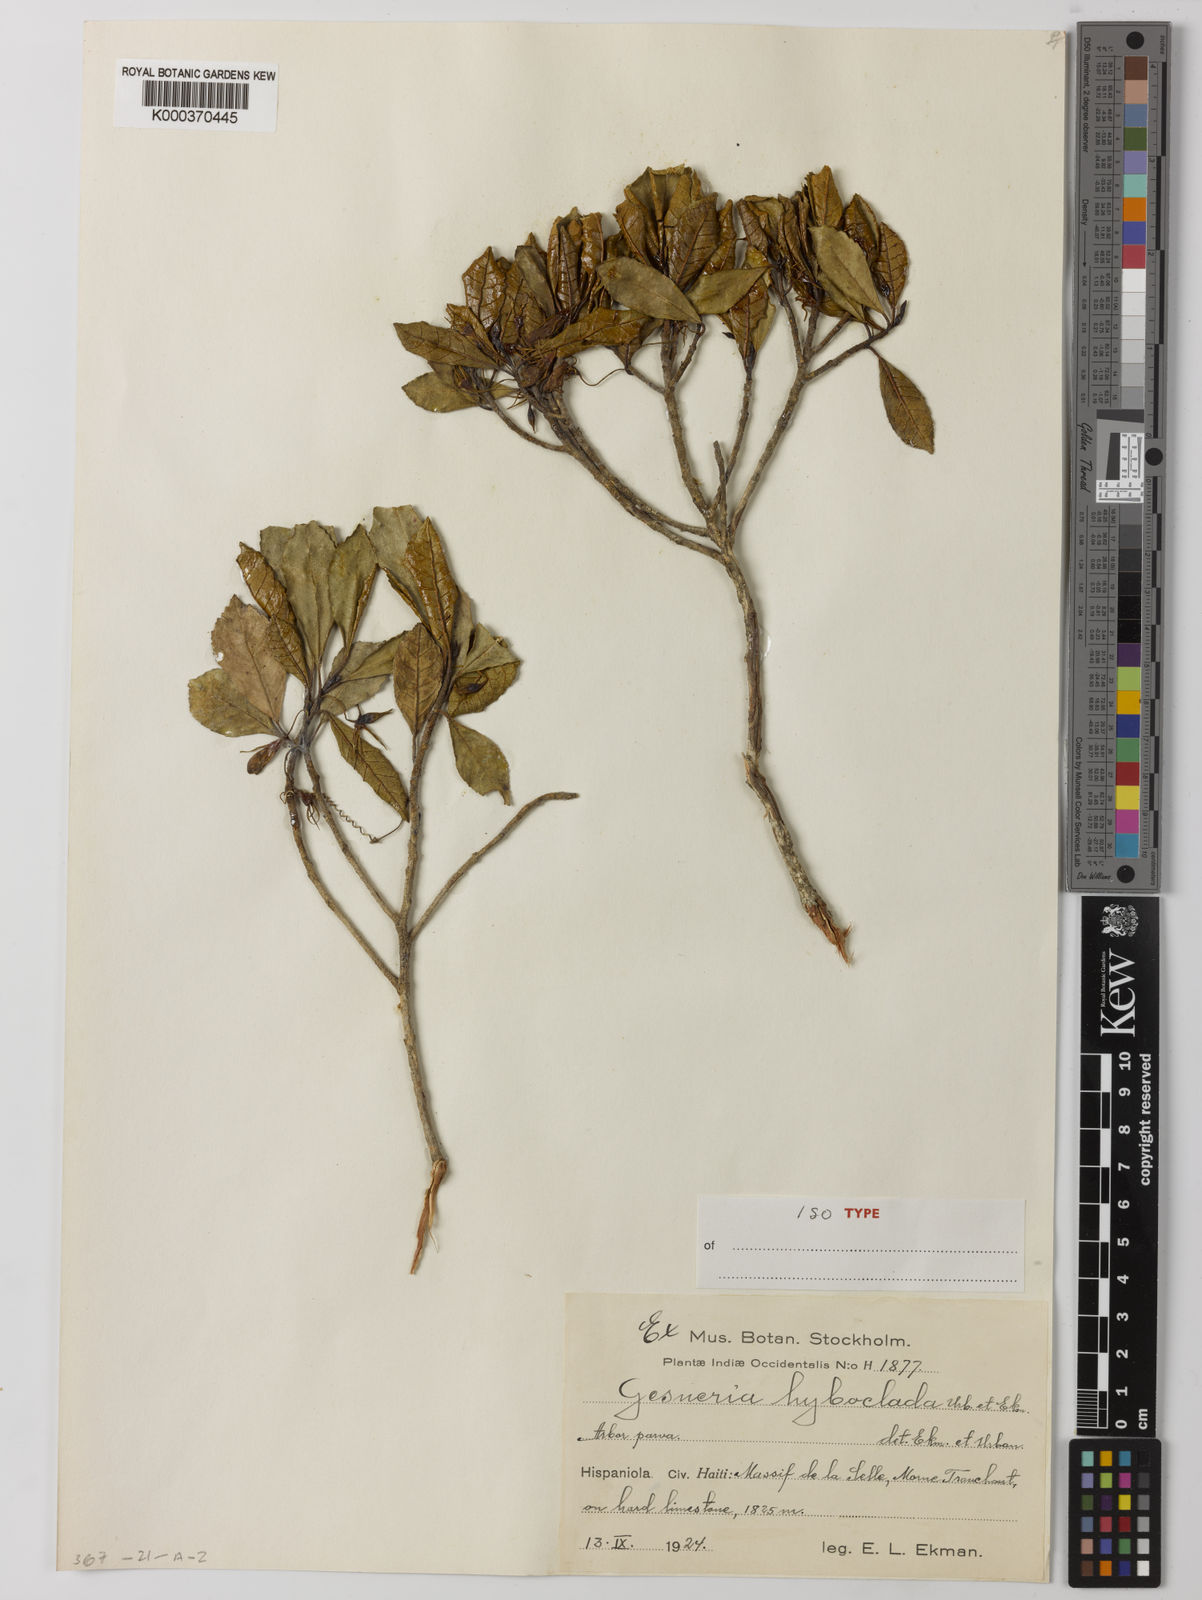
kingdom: Plantae
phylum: Tracheophyta
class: Magnoliopsida
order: Lamiales
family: Gesneriaceae
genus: Gesneria
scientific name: Gesneria hypoclada
